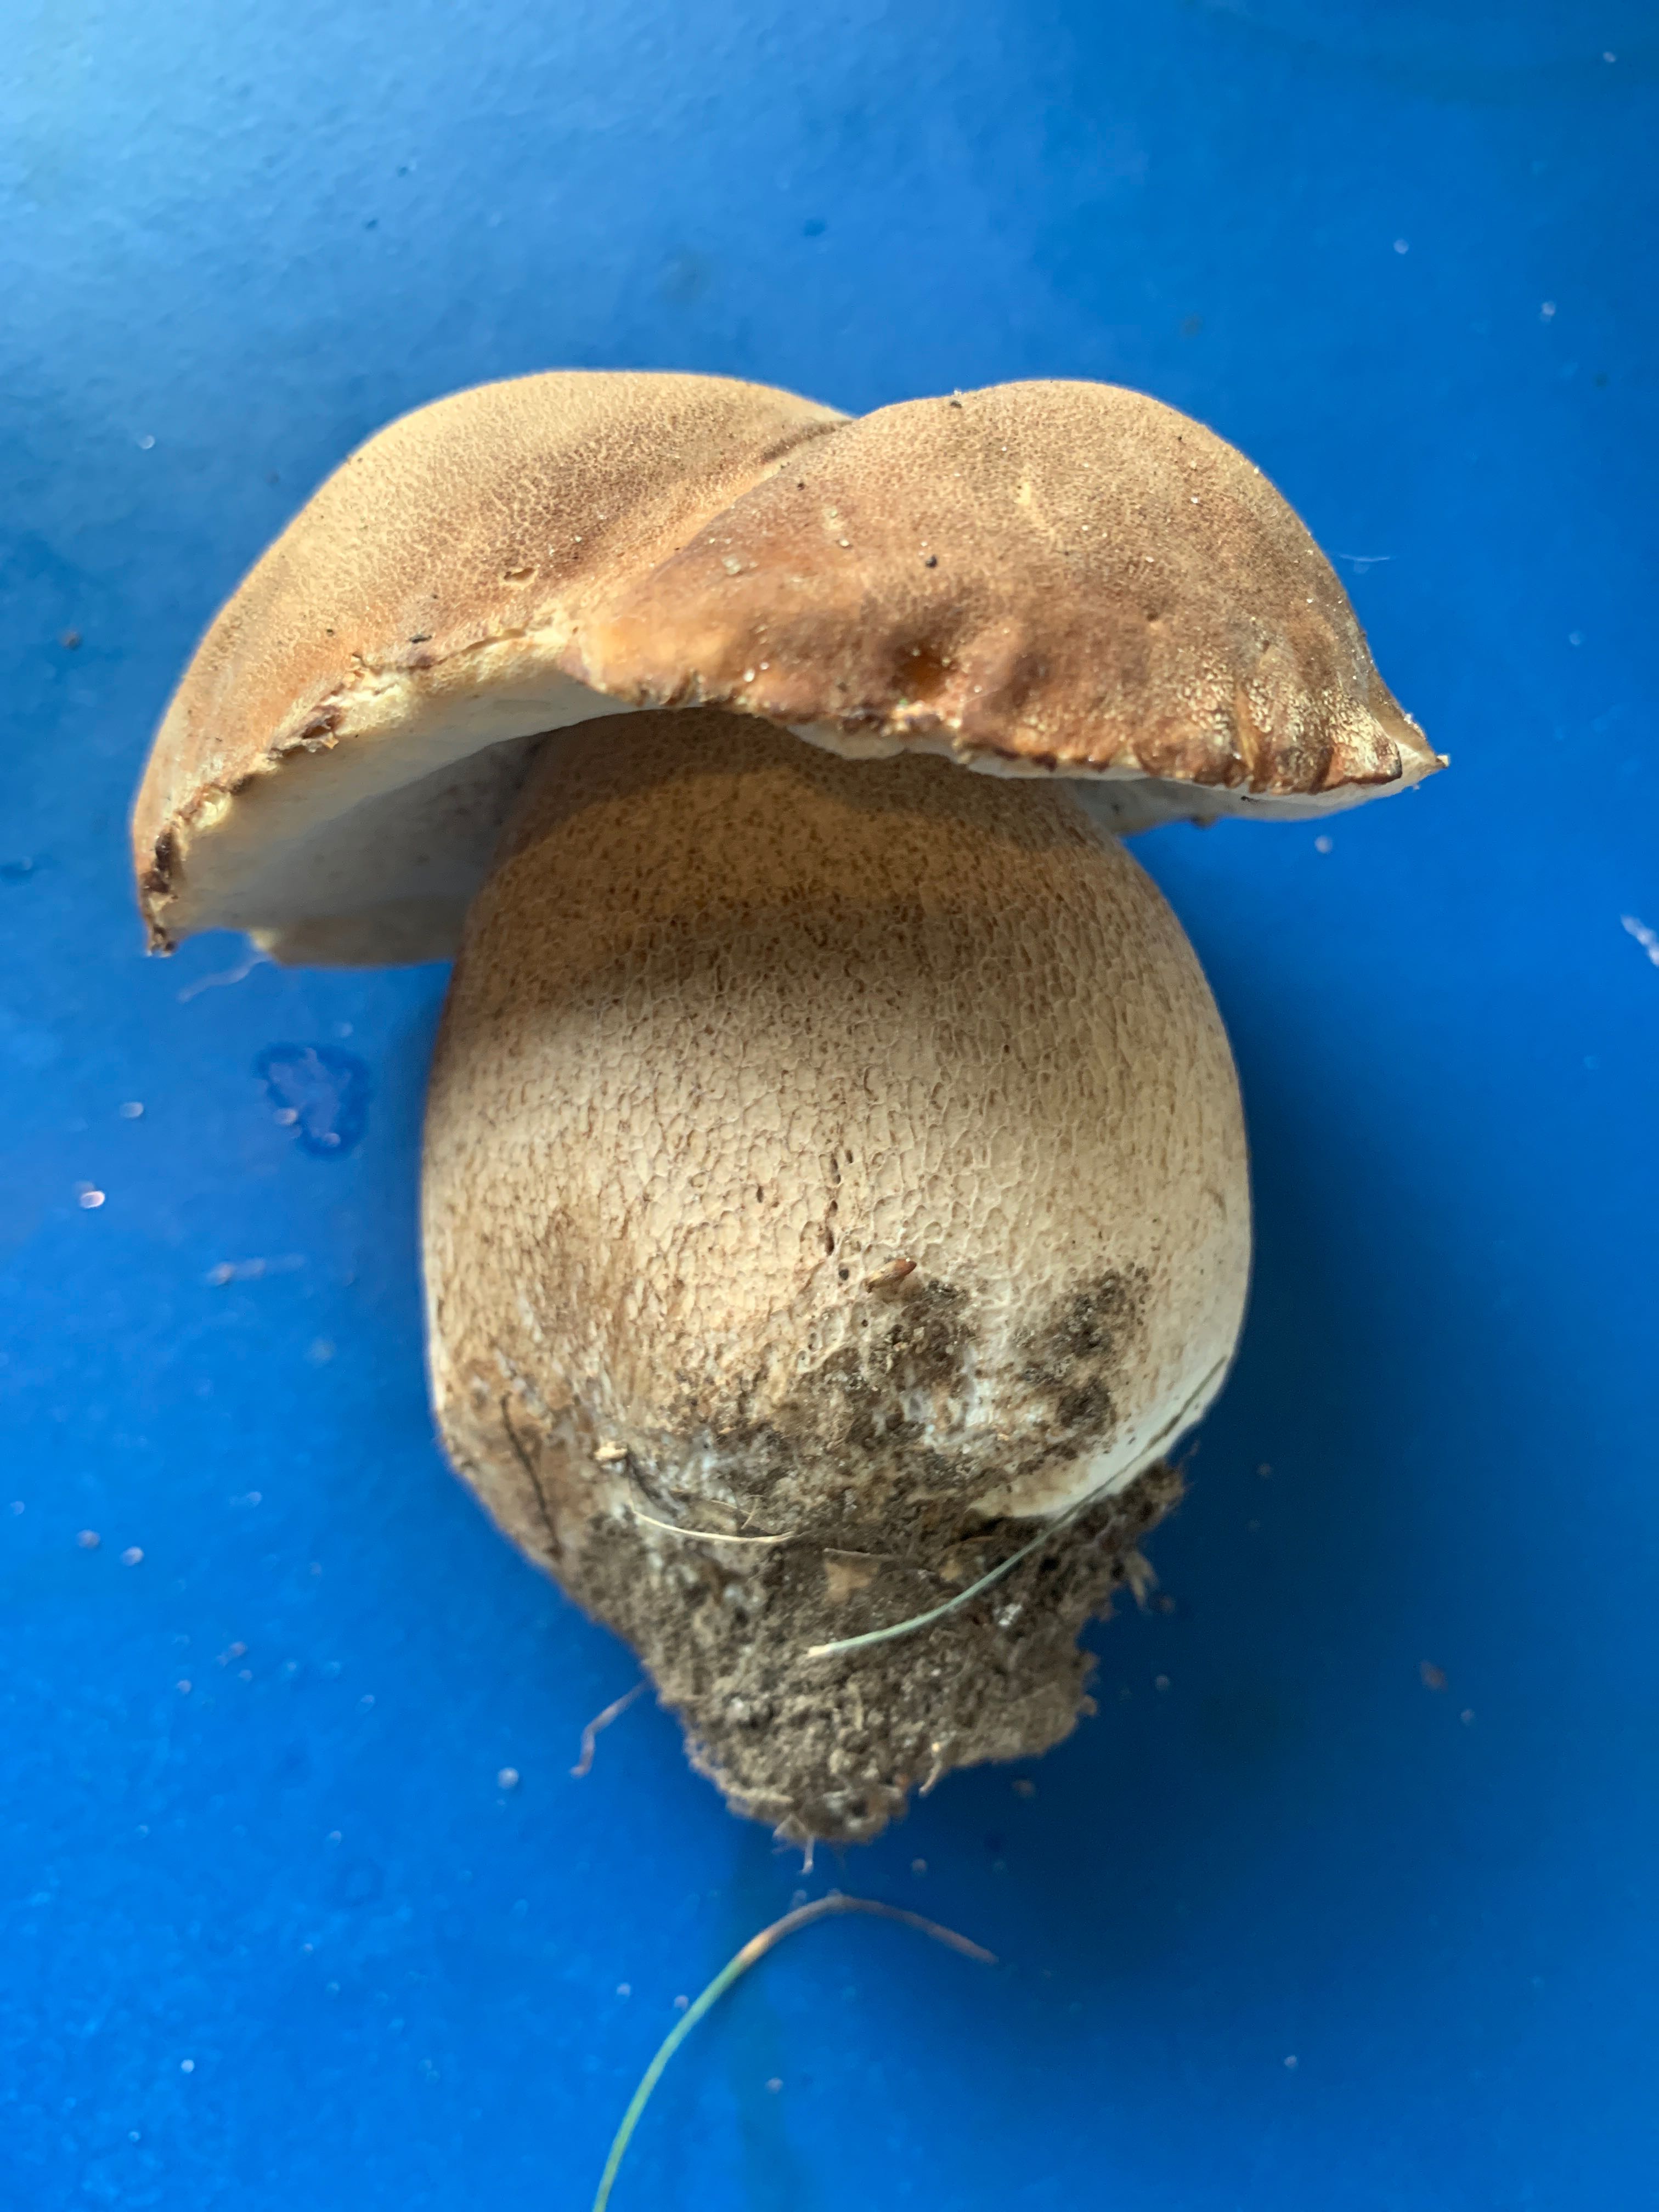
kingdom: Fungi
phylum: Basidiomycota
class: Agaricomycetes
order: Boletales
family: Boletaceae
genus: Boletus
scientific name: Boletus reticulatus
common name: sommer-rørhat
